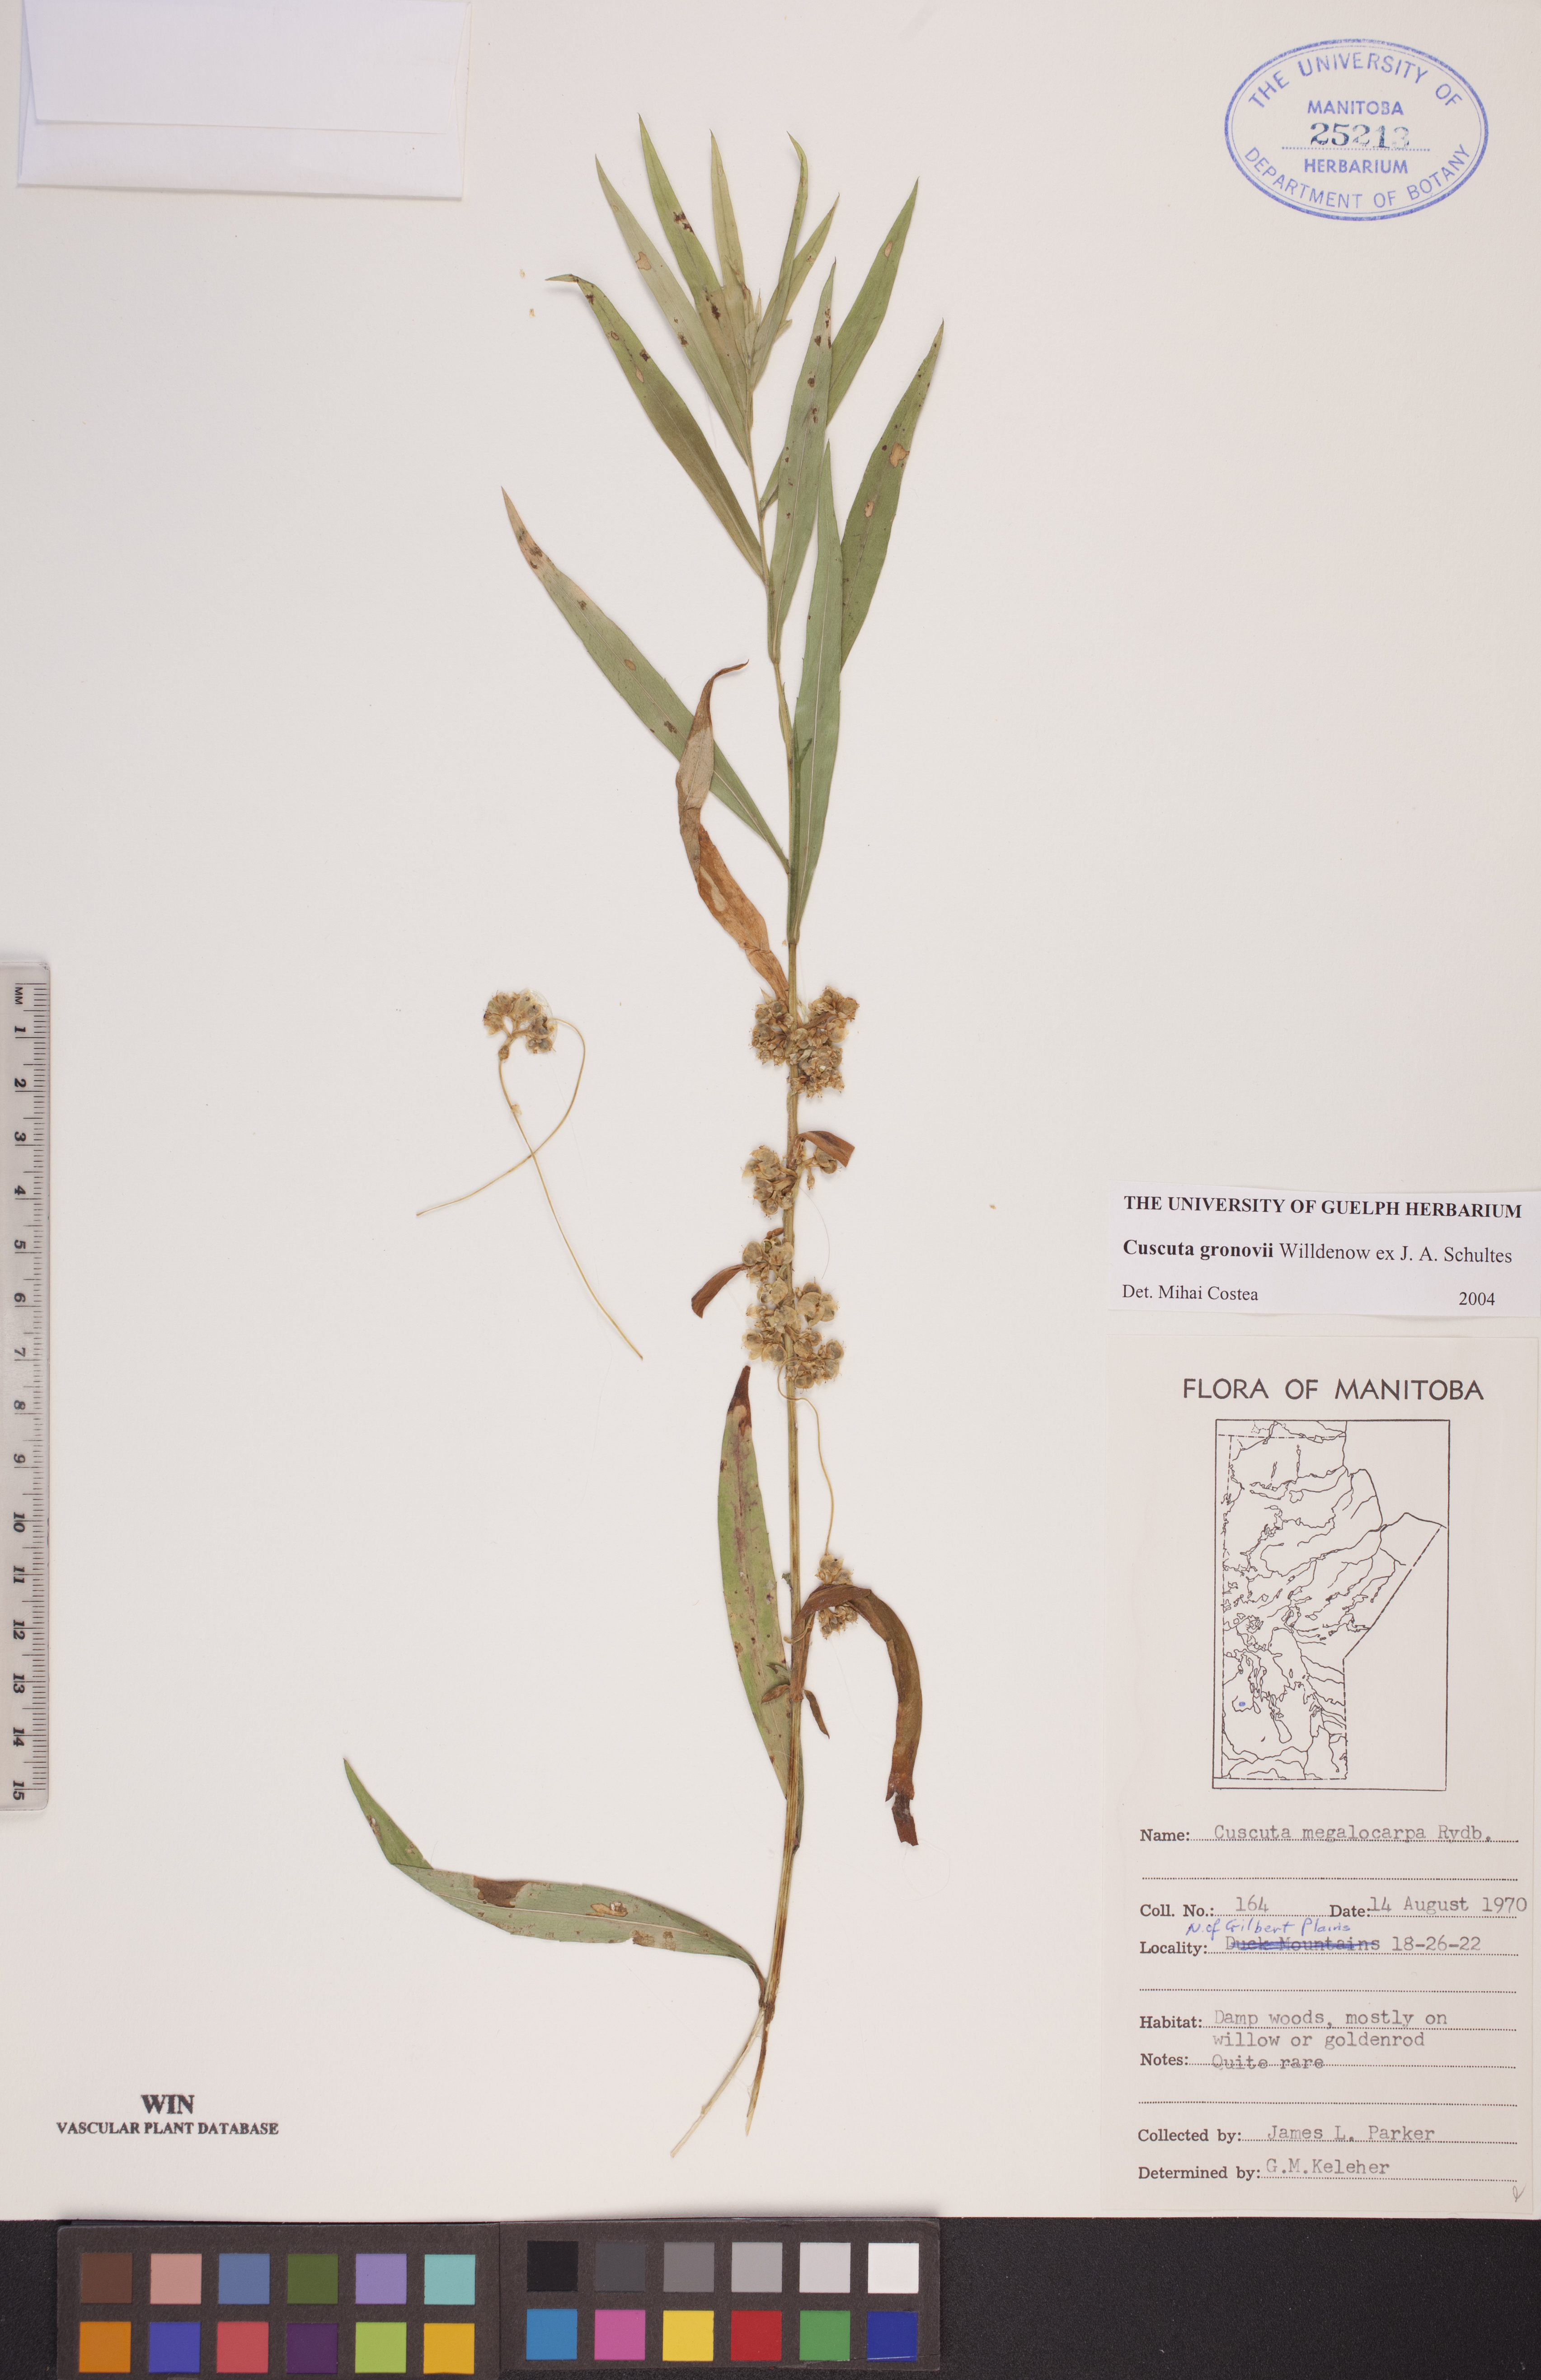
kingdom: Plantae
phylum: Tracheophyta
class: Magnoliopsida
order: Solanales
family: Convolvulaceae
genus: Cuscuta
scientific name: Cuscuta gronovii
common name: Common dodder
